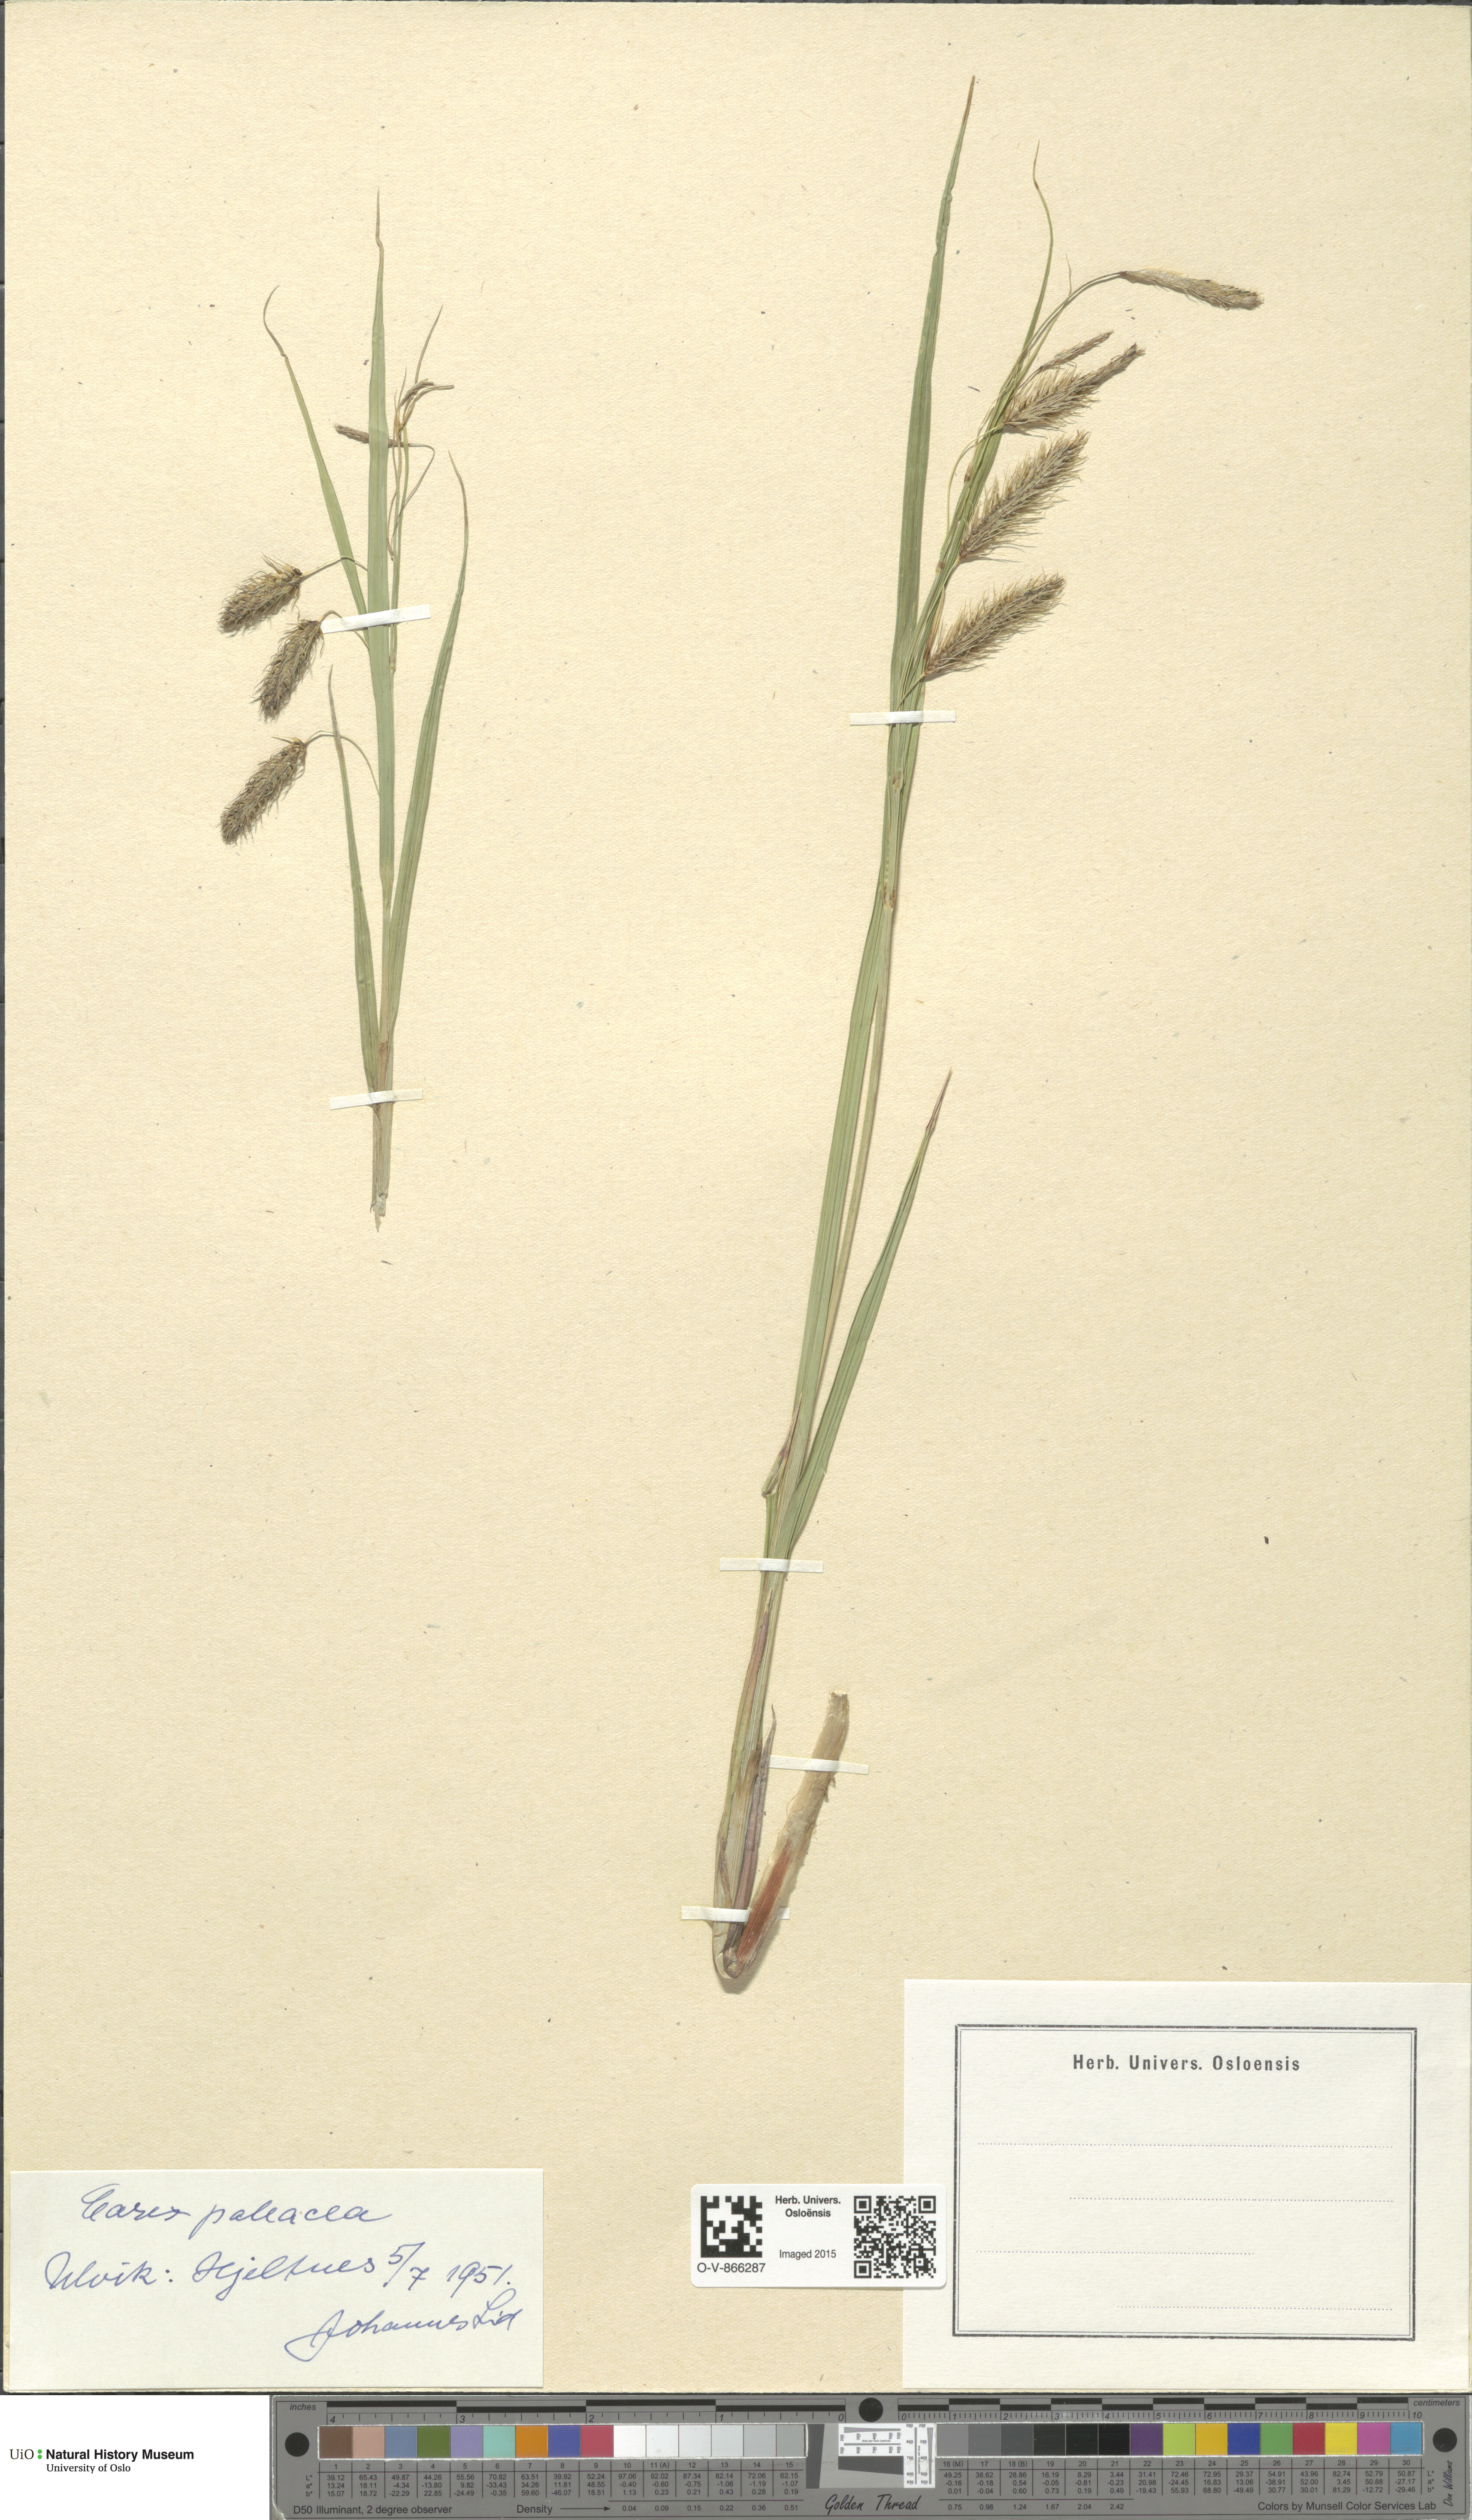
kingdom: Plantae
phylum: Tracheophyta
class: Liliopsida
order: Poales
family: Cyperaceae
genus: Carex
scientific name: Carex paleacea
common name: Chaffy sedge
